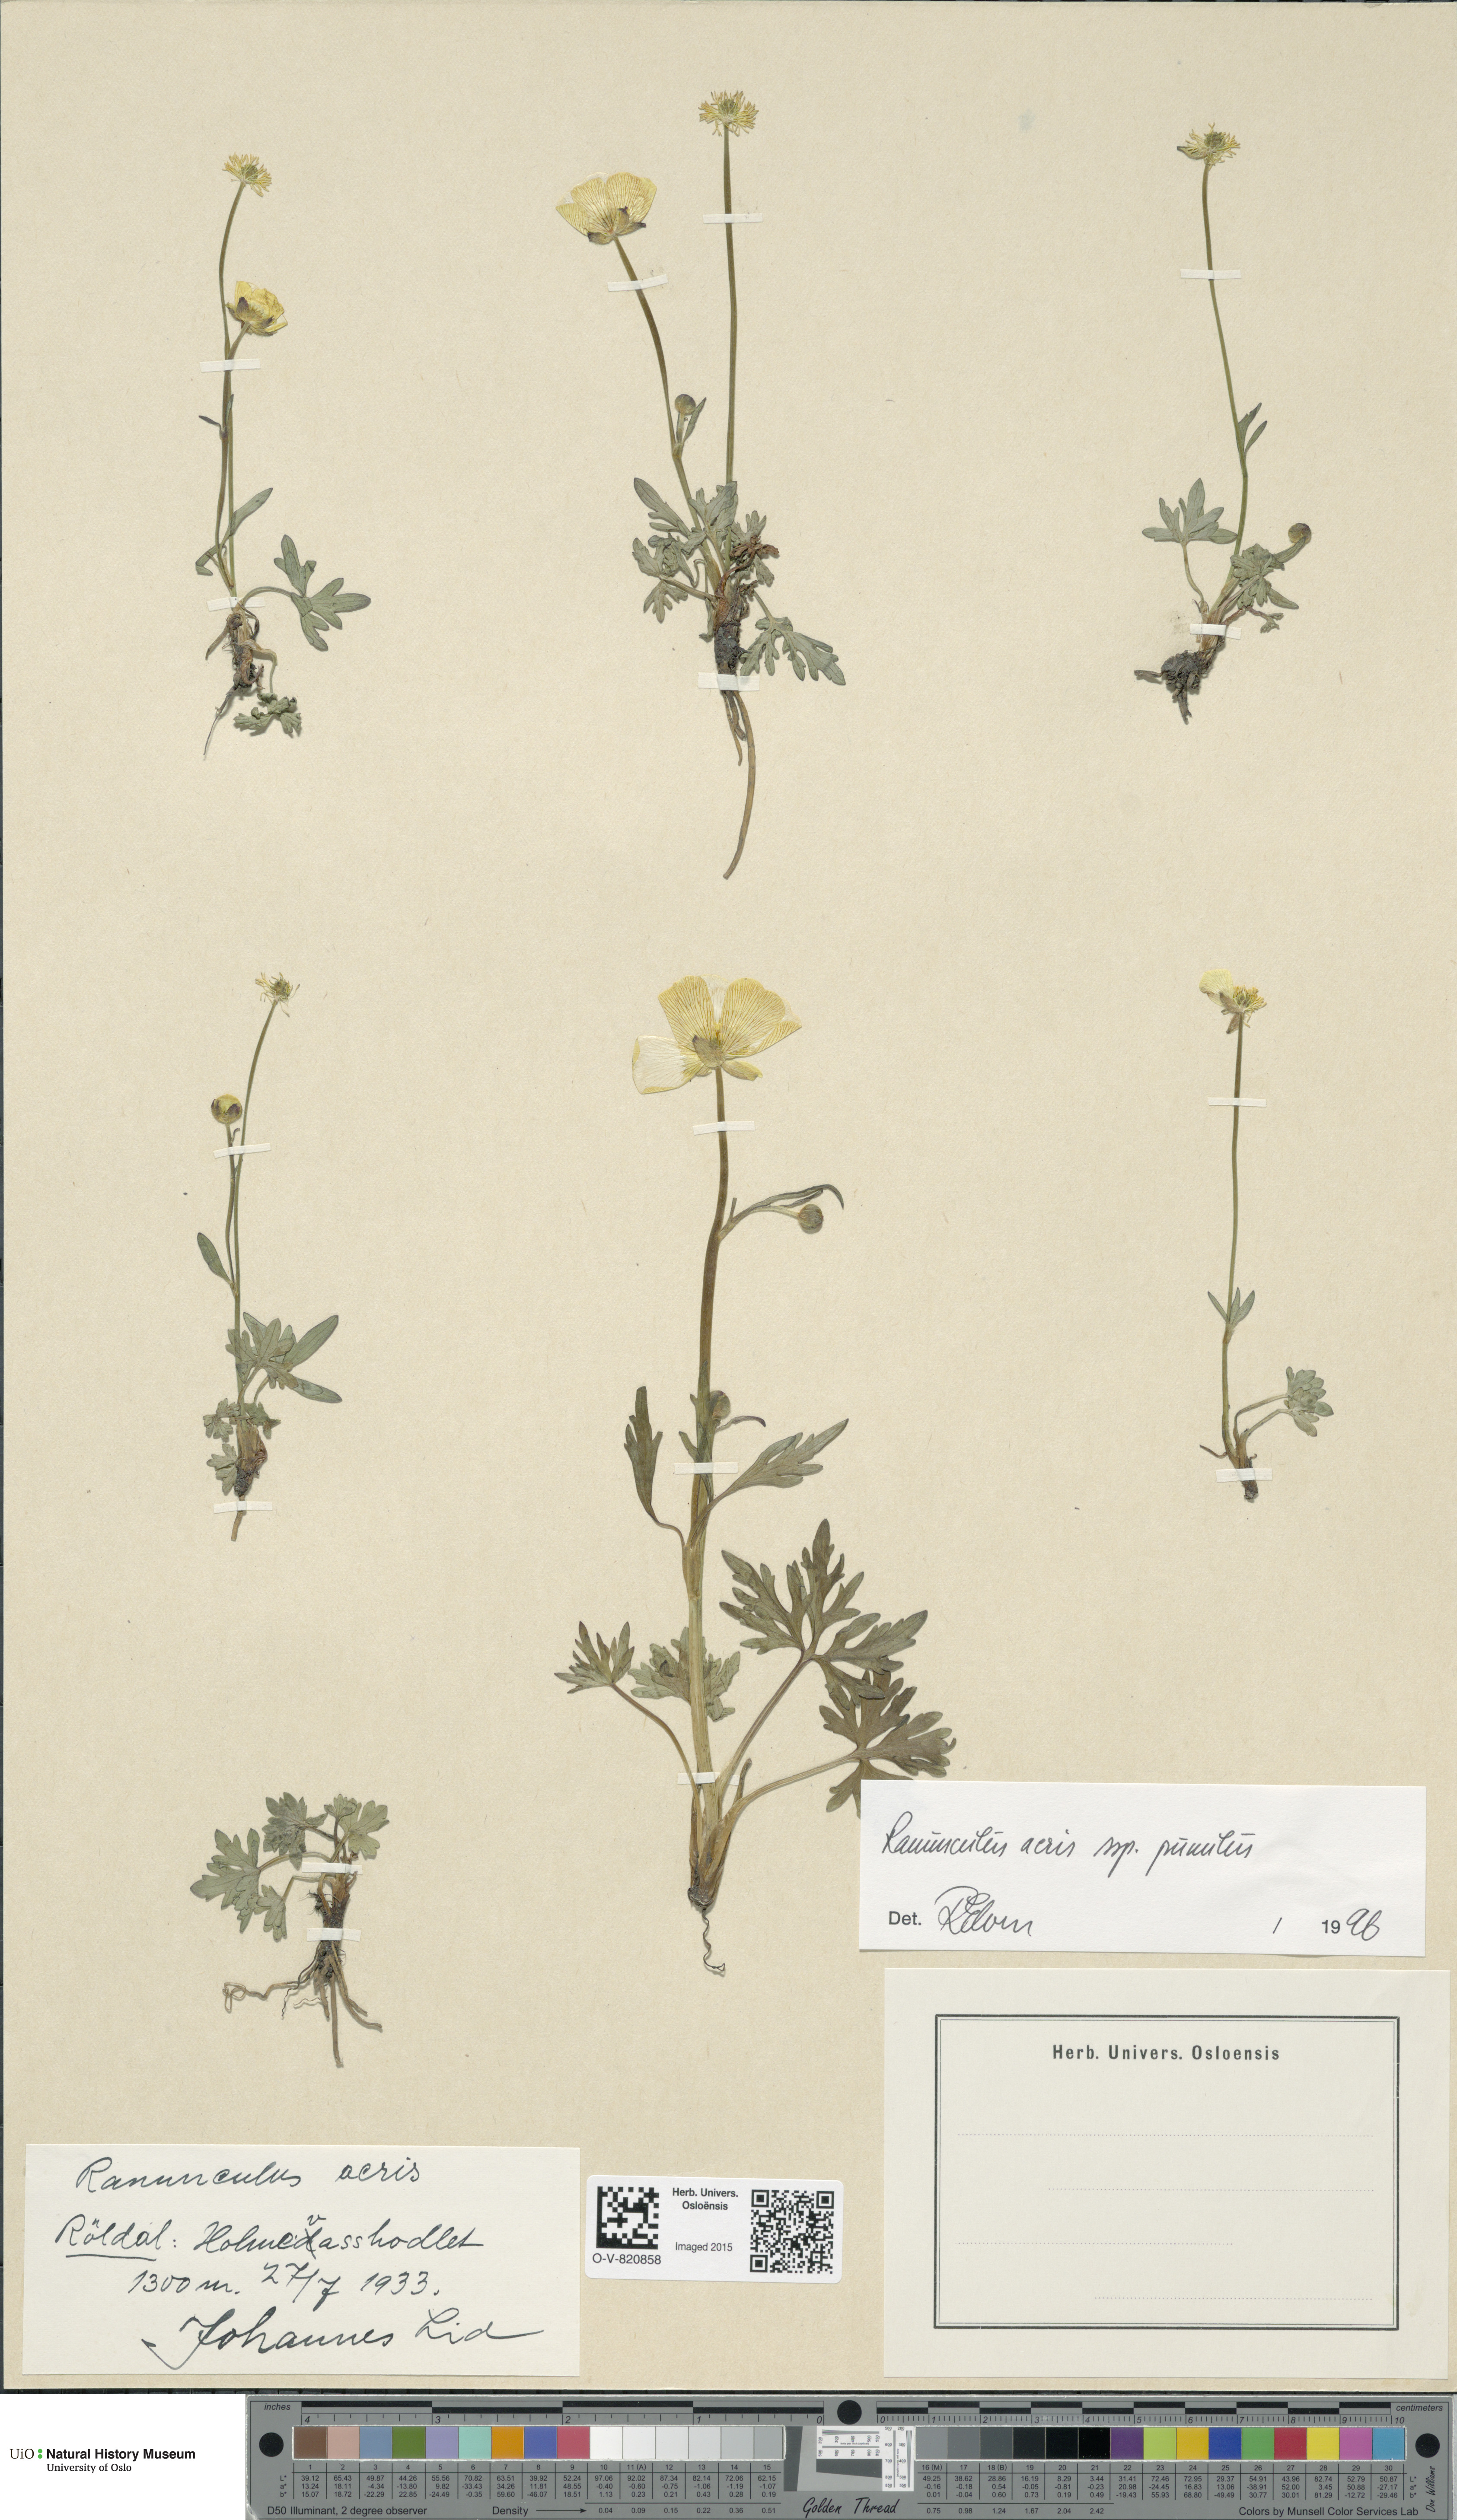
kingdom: Plantae
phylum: Tracheophyta
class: Magnoliopsida
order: Ranunculales
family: Ranunculaceae
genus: Ranunculus
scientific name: Ranunculus
